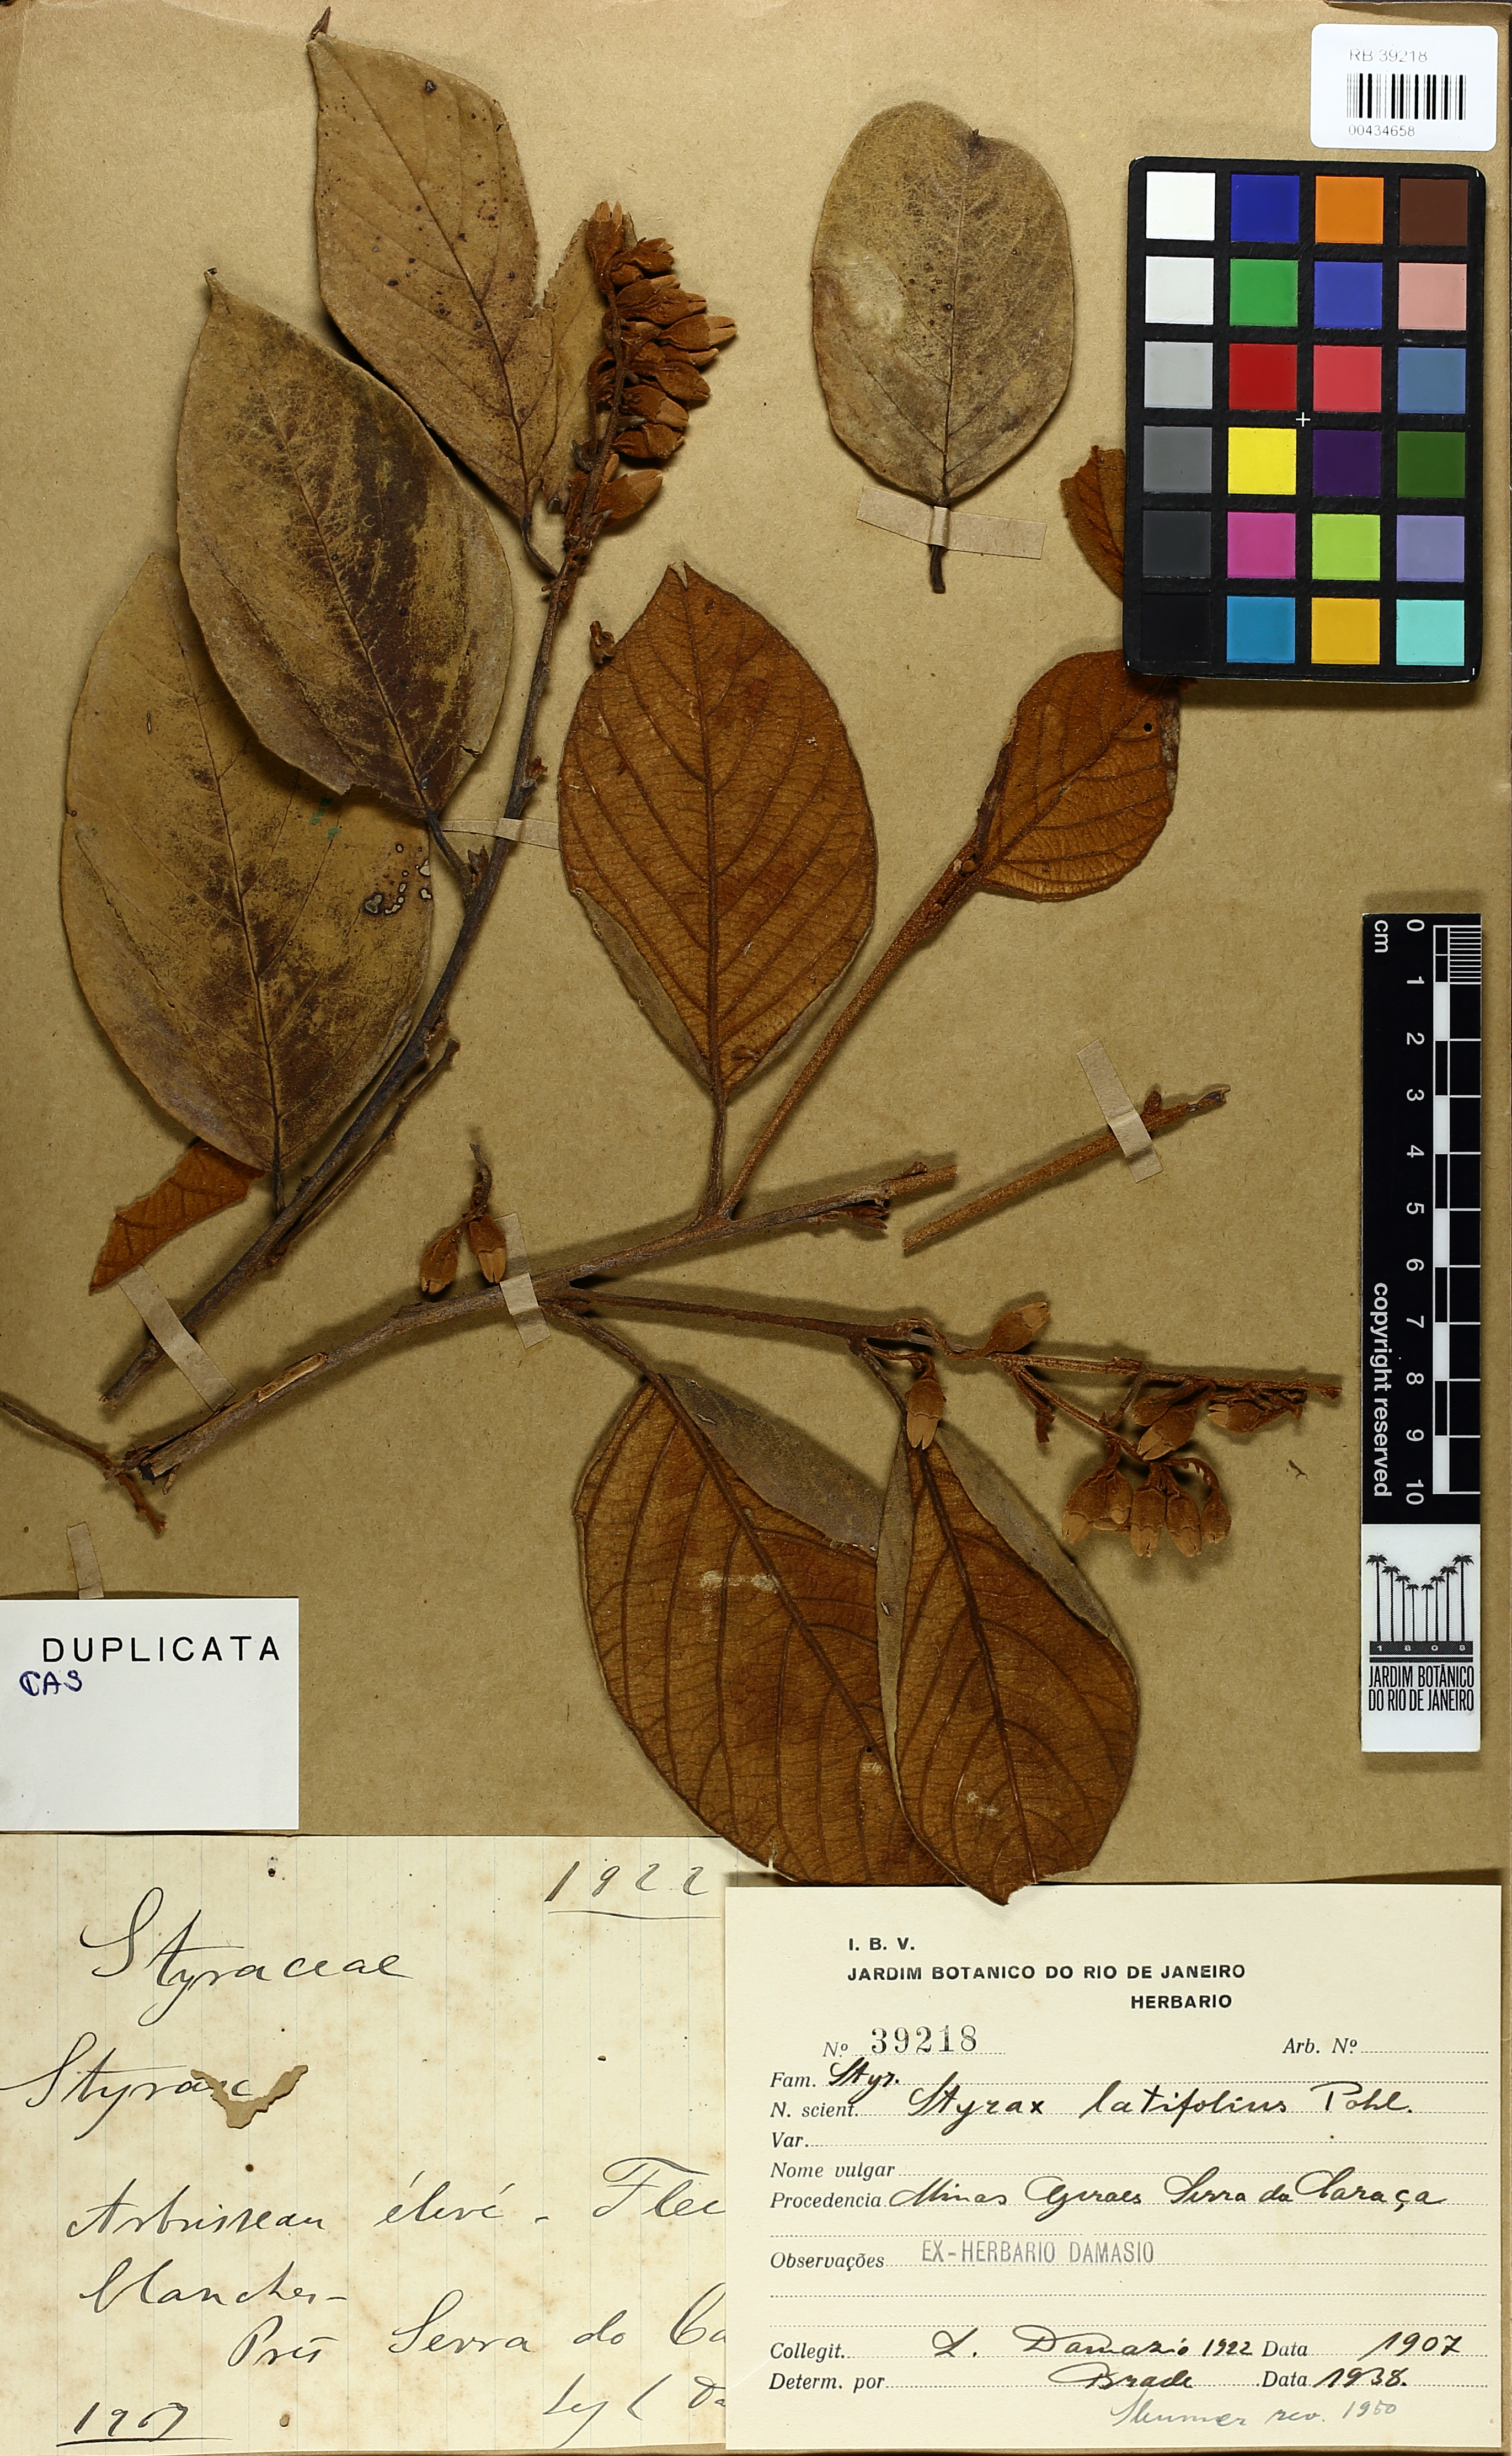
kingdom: Plantae
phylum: Tracheophyta
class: Magnoliopsida
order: Ericales
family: Styracaceae
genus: Styrax
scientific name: Styrax latifolius
